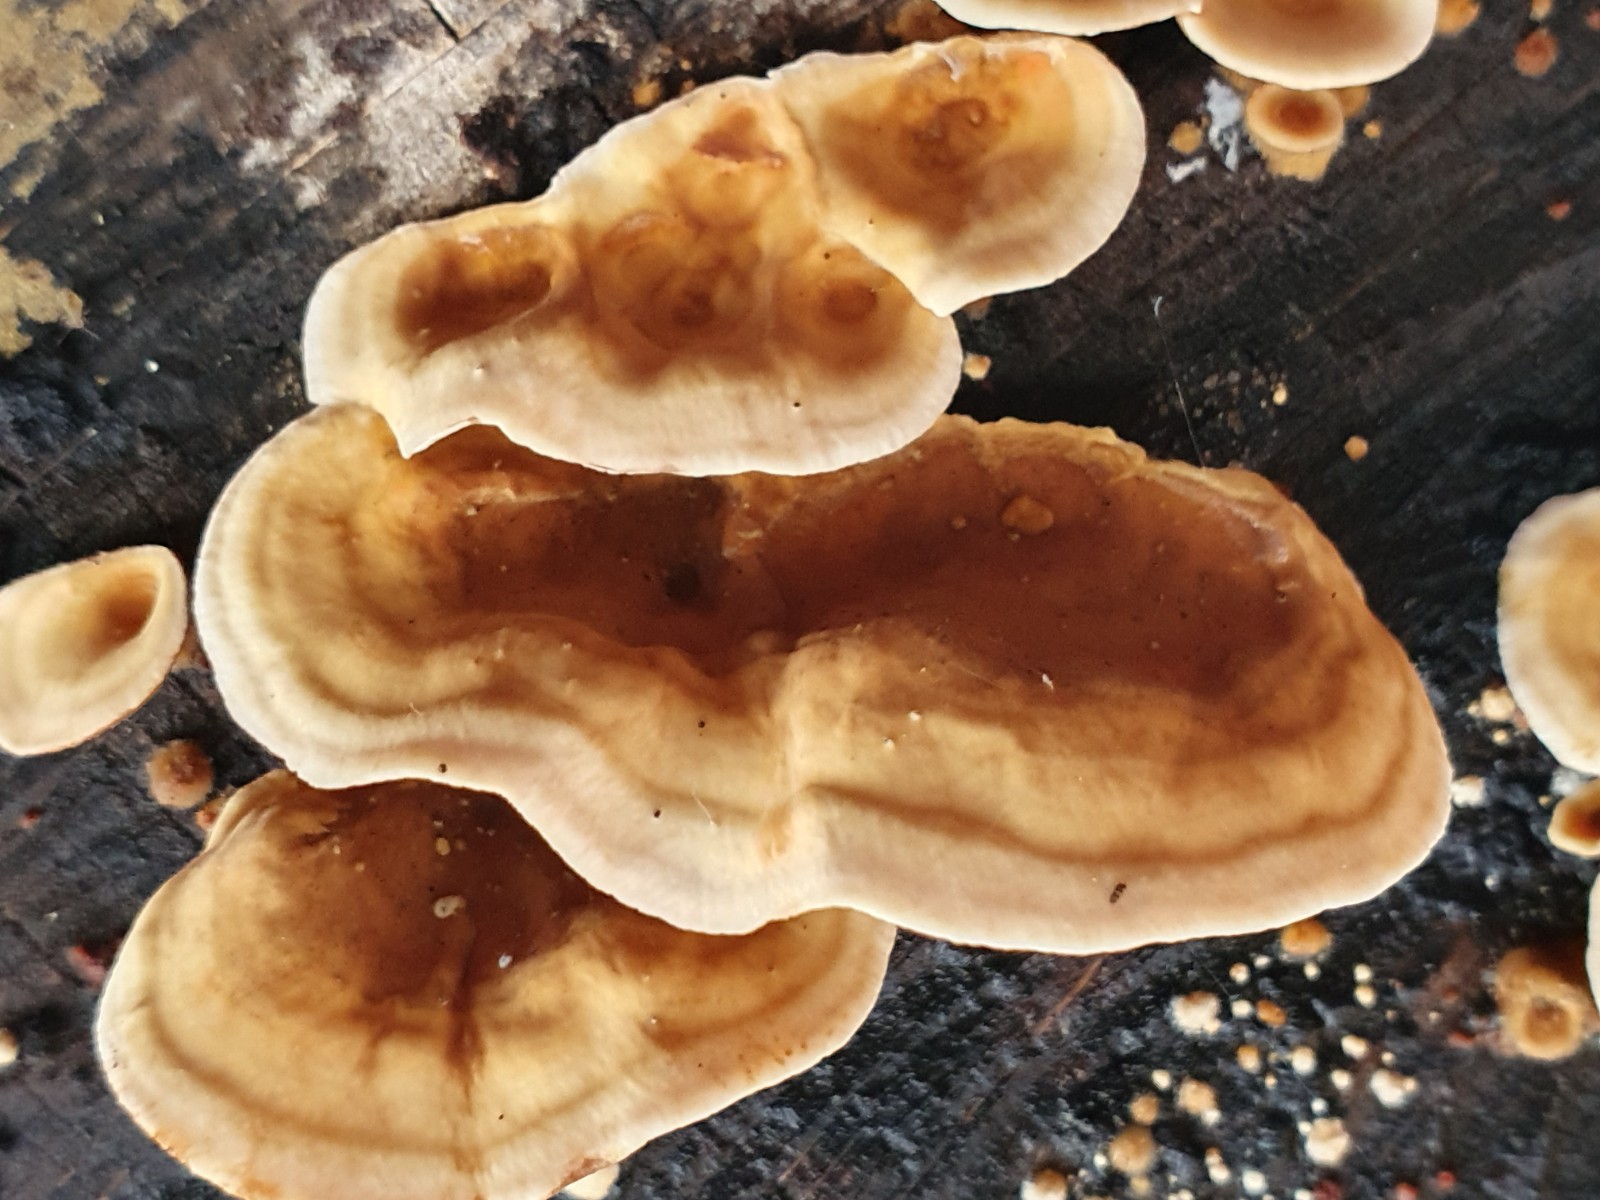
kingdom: Fungi
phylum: Basidiomycota
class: Agaricomycetes
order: Russulales
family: Stereaceae
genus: Stereum
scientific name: Stereum hirsutum
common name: håret lædersvamp
